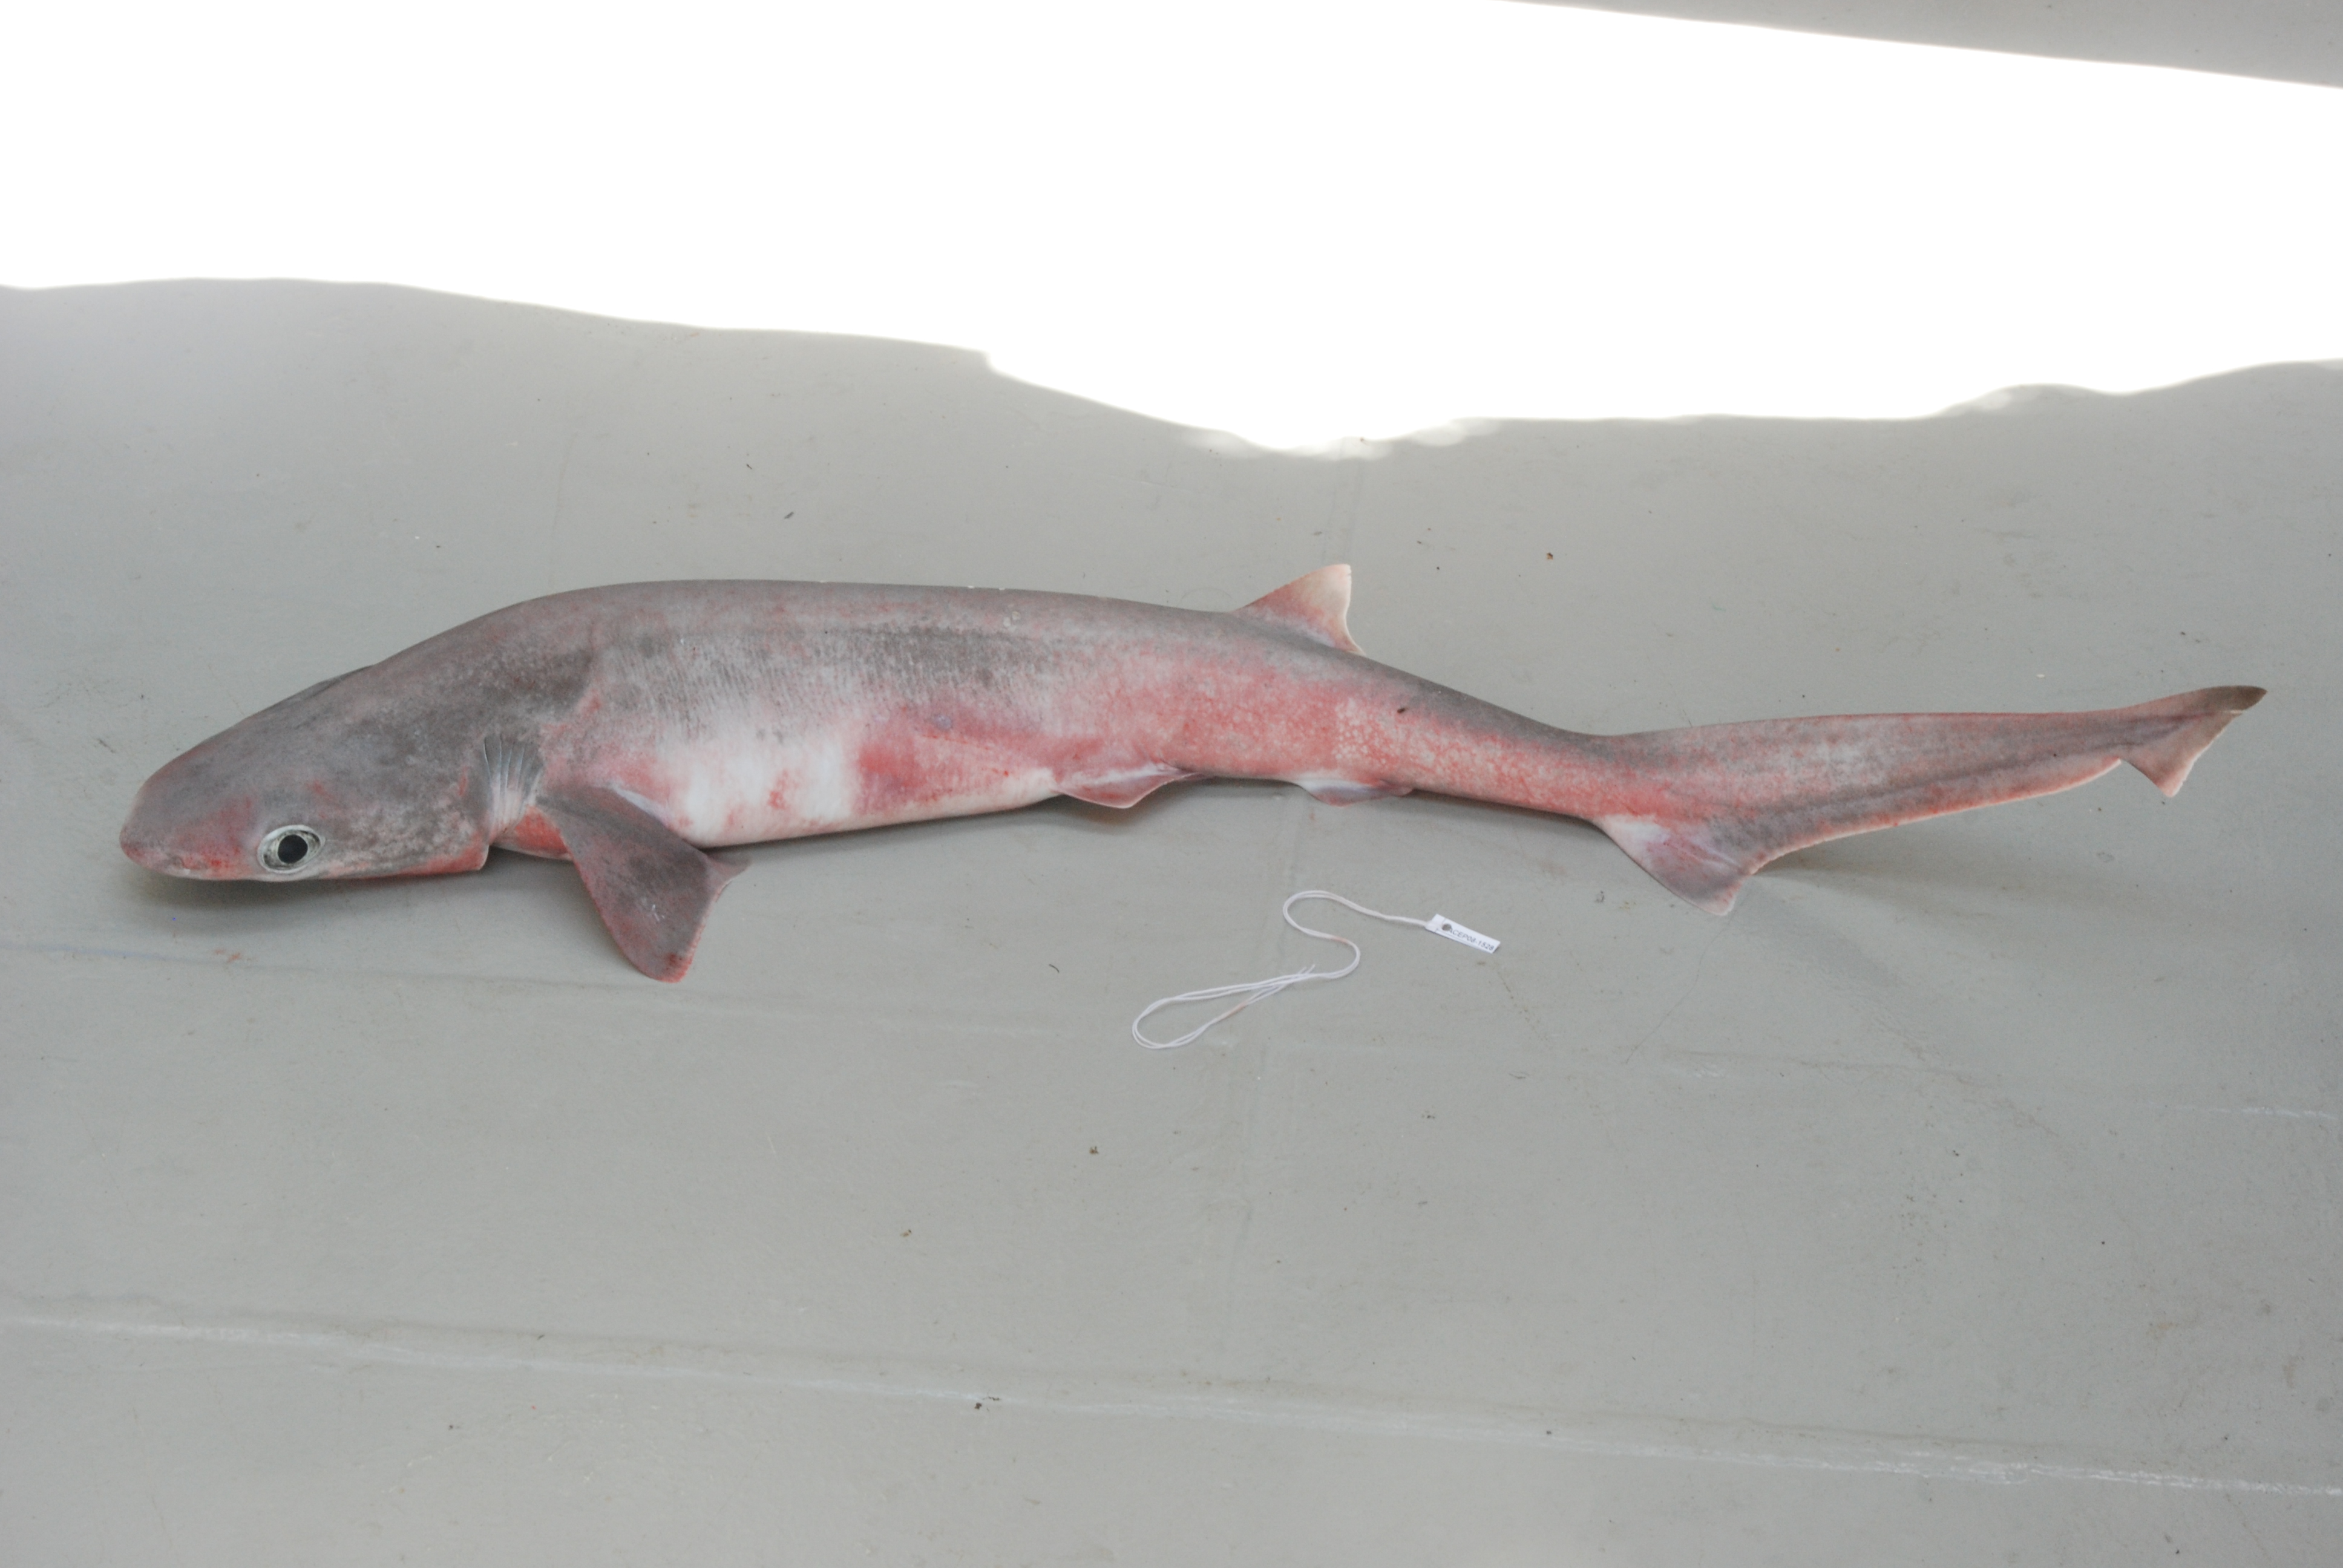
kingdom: Animalia
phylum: Chordata
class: Elasmobranchii
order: Hexanchiformes
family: Hexanchidae
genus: Hexanchus
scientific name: Hexanchus nakamurai
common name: Bigeye sixgill shark
